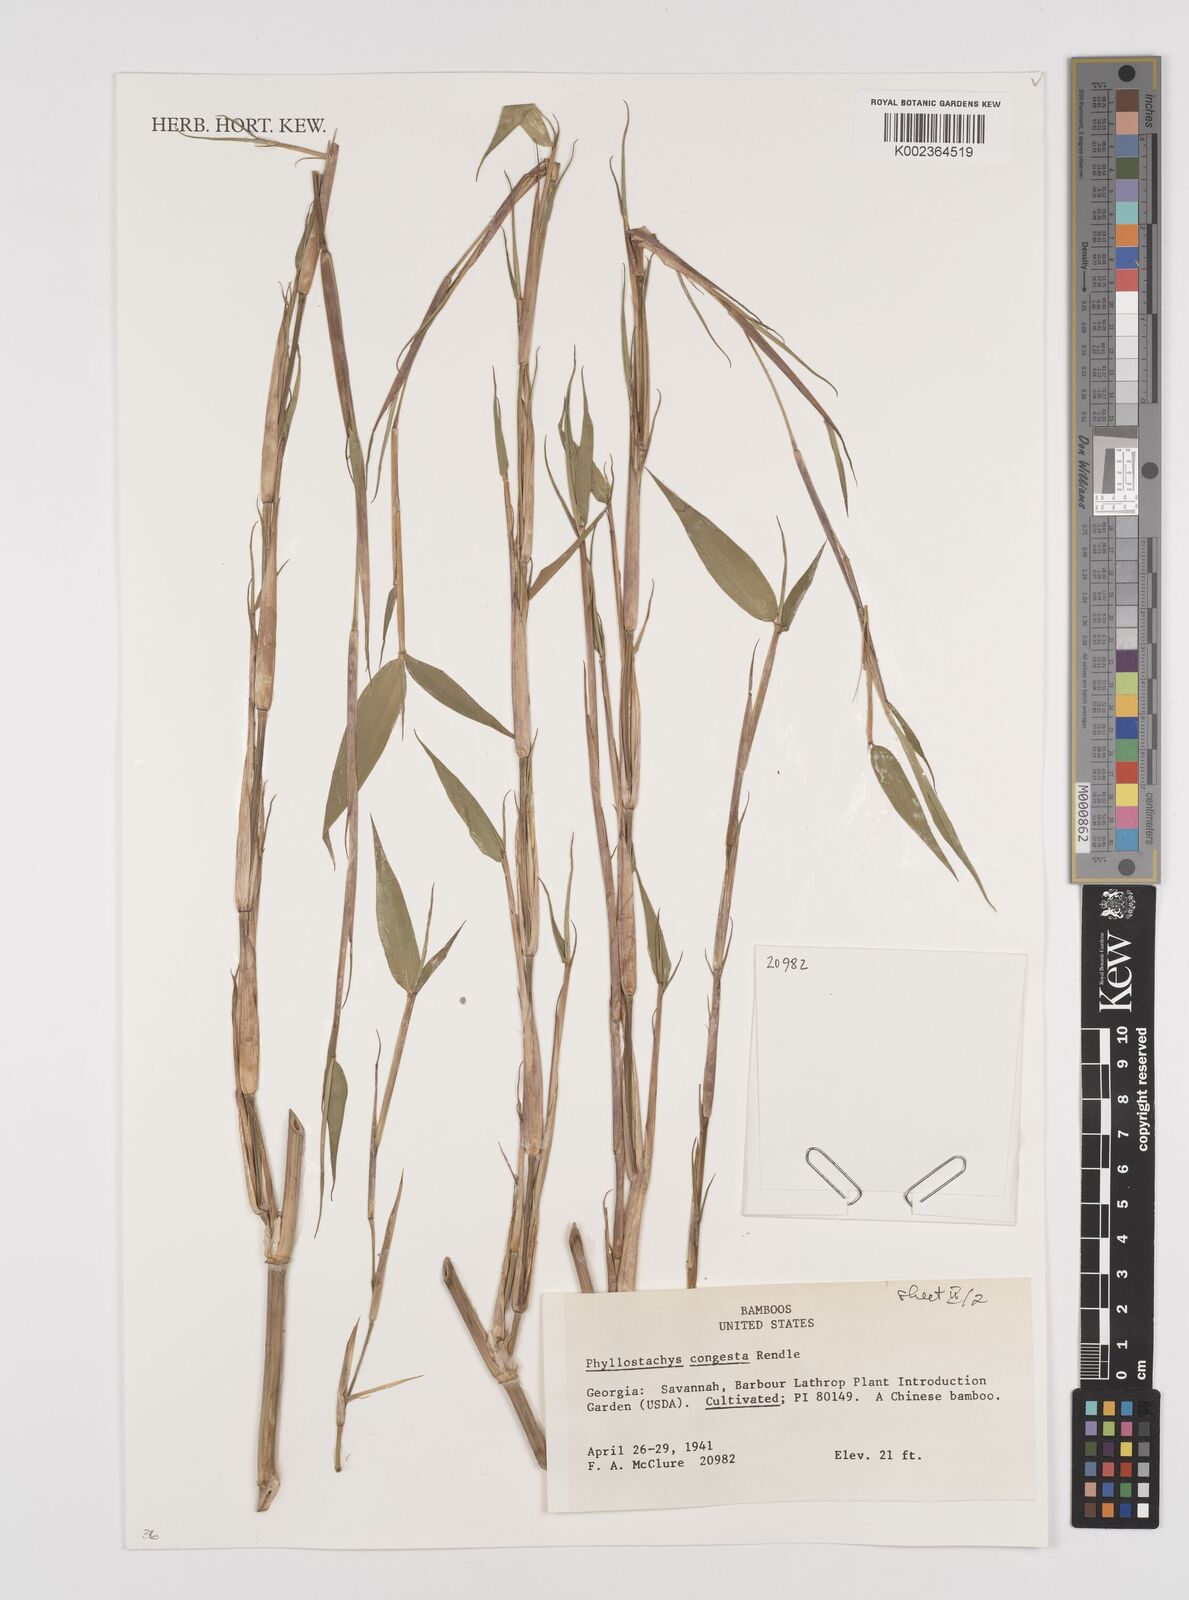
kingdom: Plantae
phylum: Tracheophyta
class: Liliopsida
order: Poales
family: Poaceae
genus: Phyllostachys
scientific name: Phyllostachys heteroclada
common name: Fishscale bamboo
